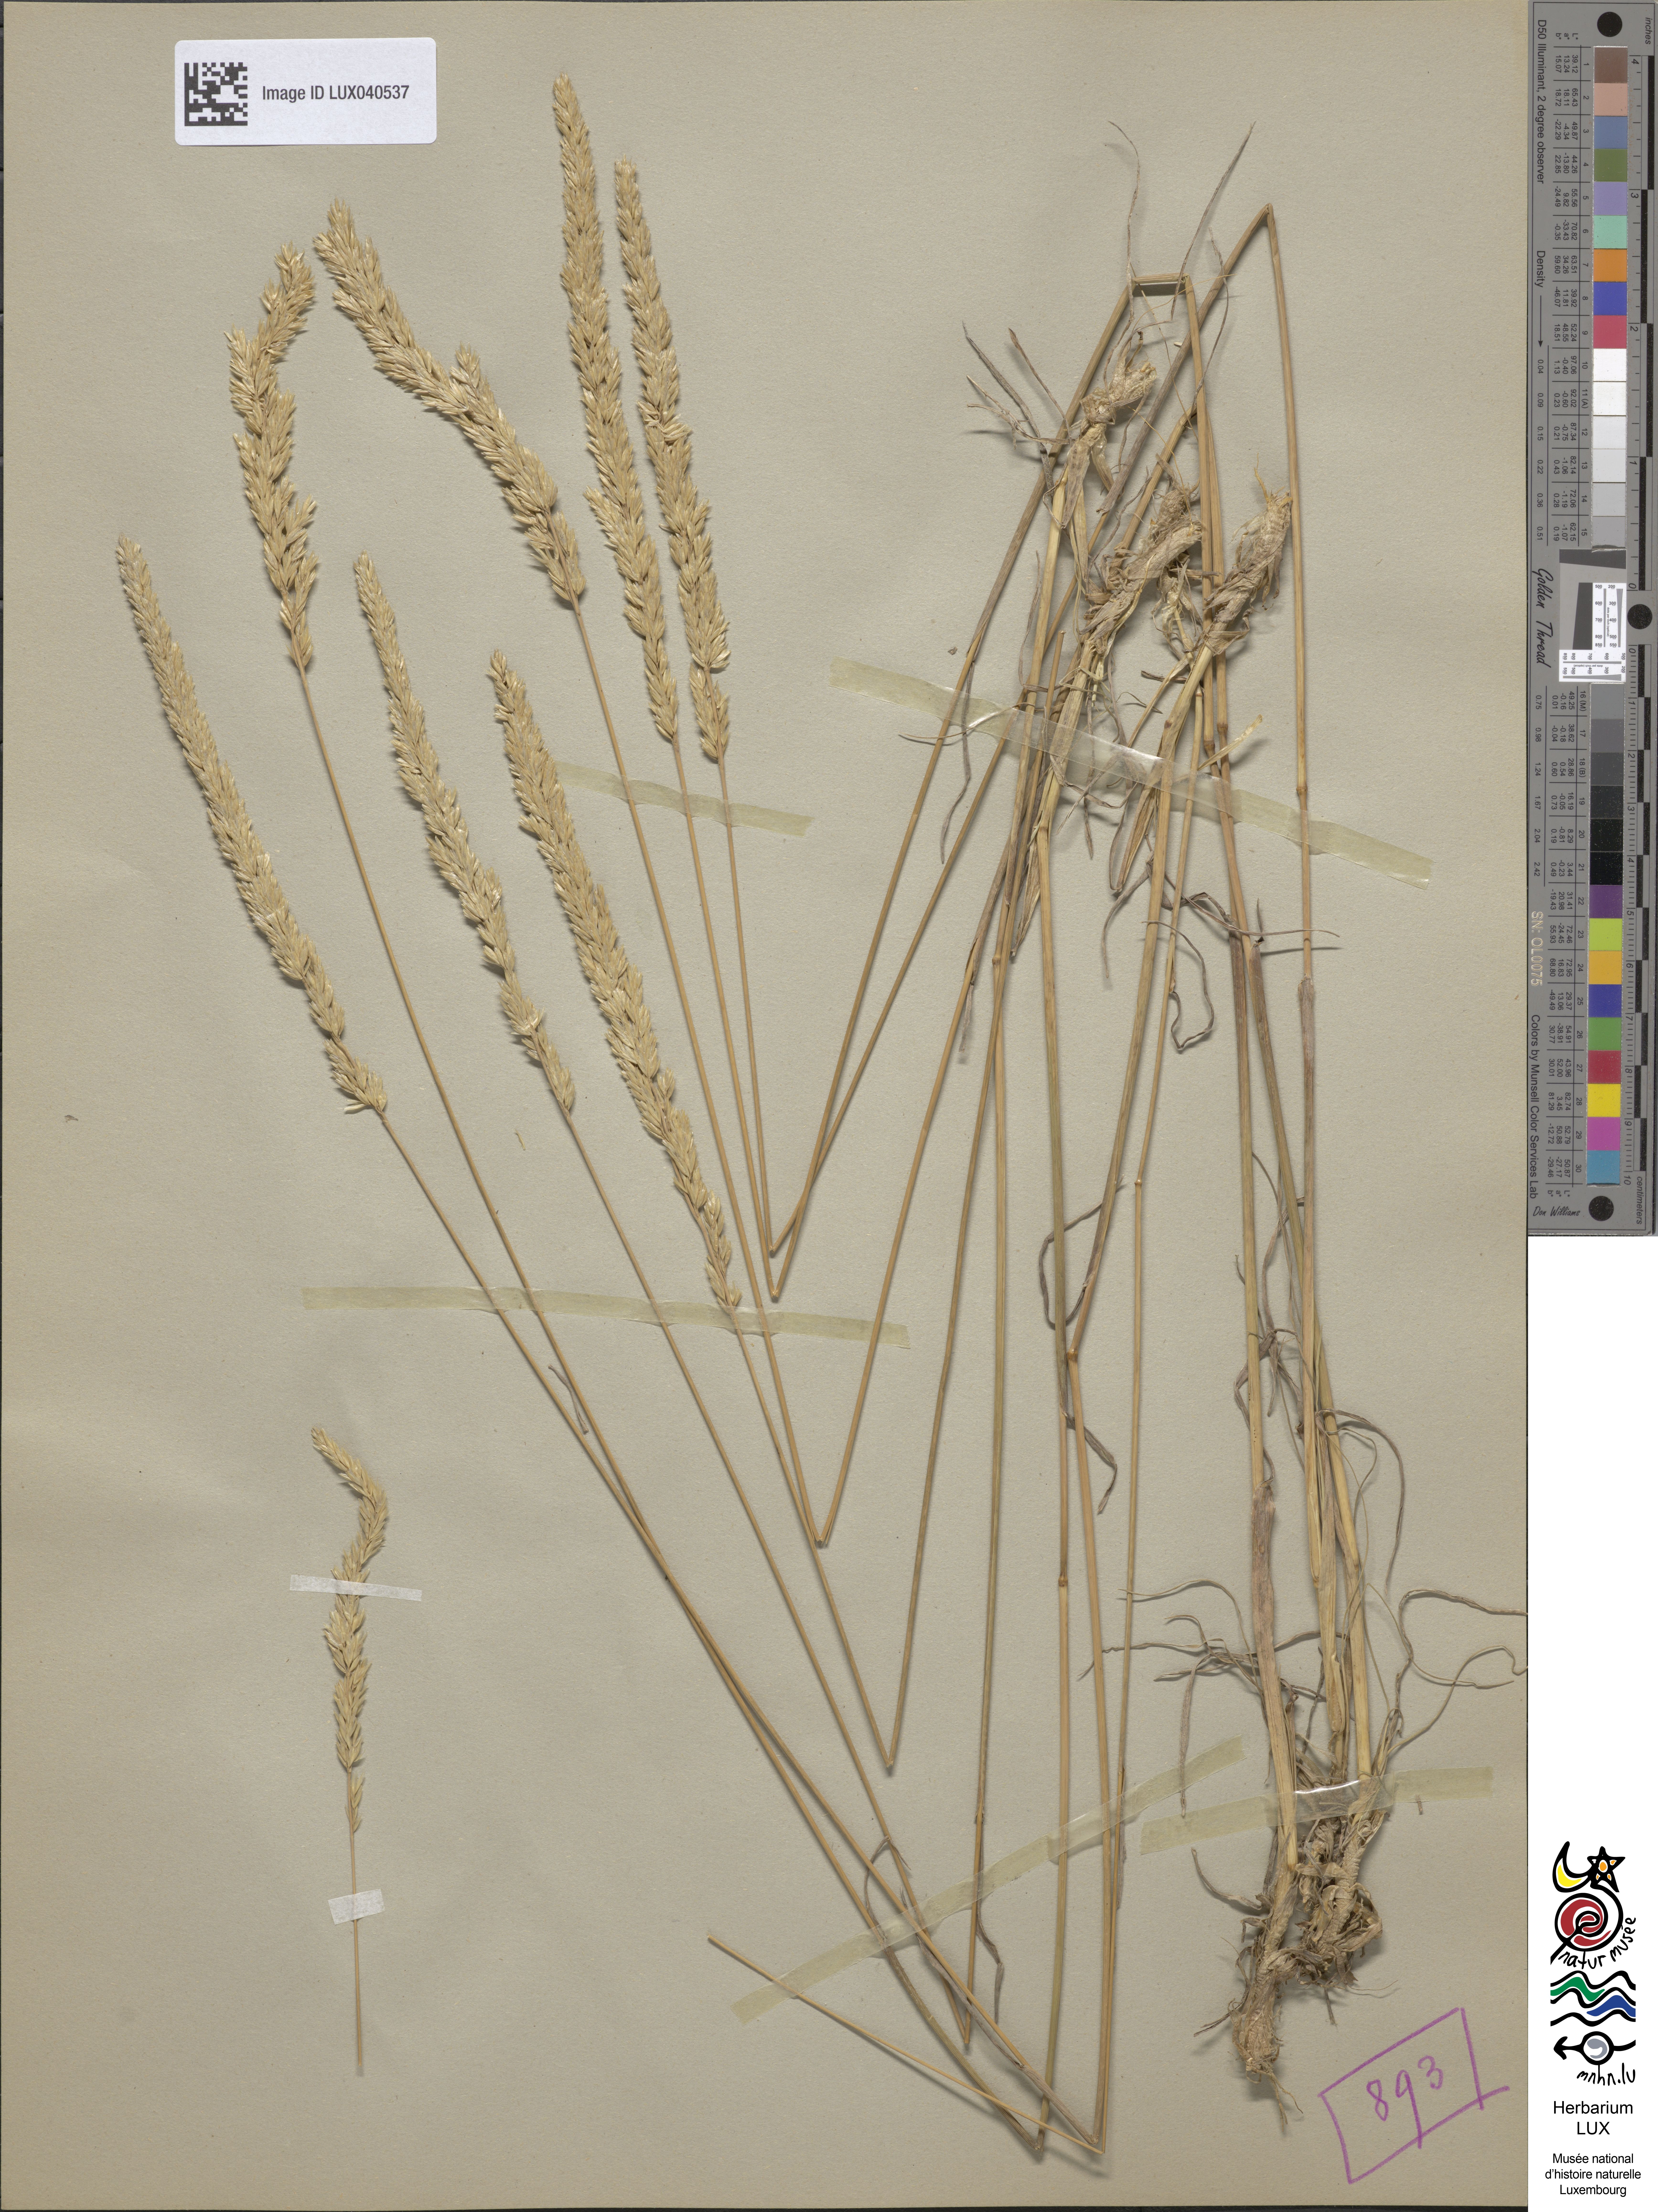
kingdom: Plantae
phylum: Tracheophyta
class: Liliopsida
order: Poales
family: Poaceae
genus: Koeleria
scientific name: Koeleria glauca
